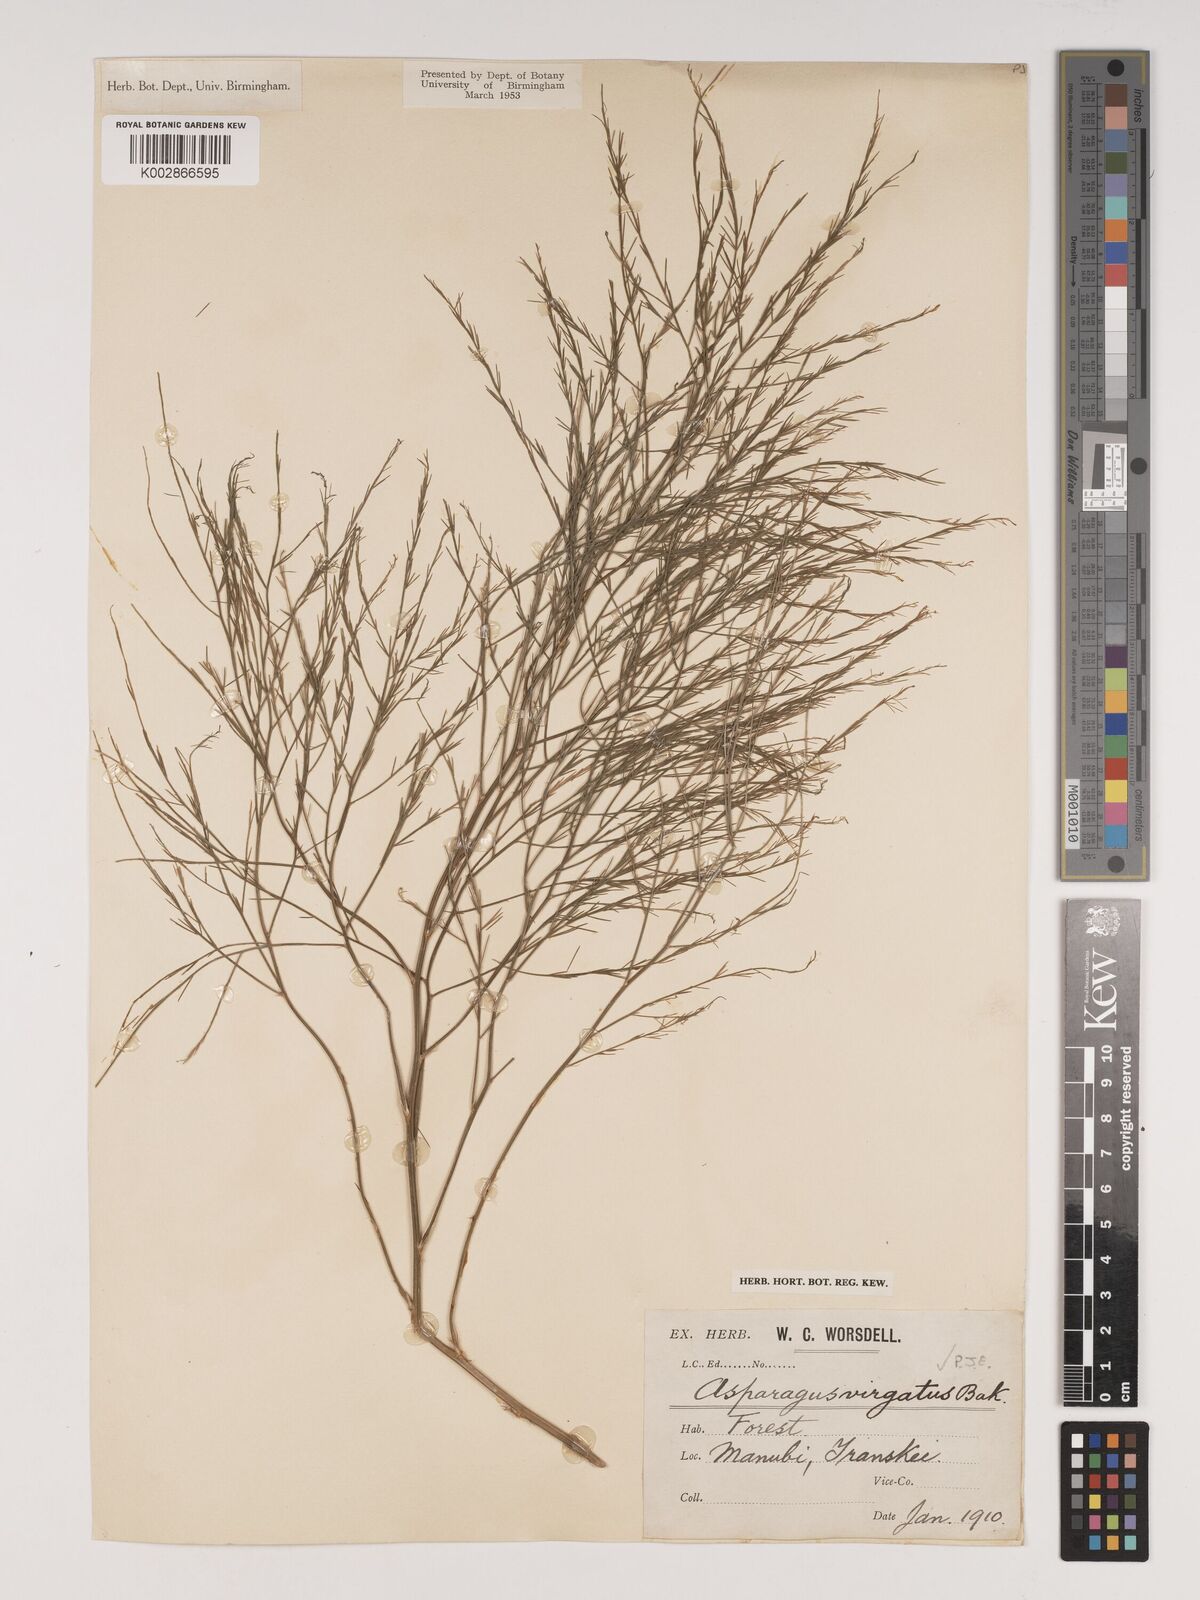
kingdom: Plantae
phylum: Tracheophyta
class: Liliopsida
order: Asparagales
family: Asparagaceae
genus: Asparagus
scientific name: Asparagus virgatus
